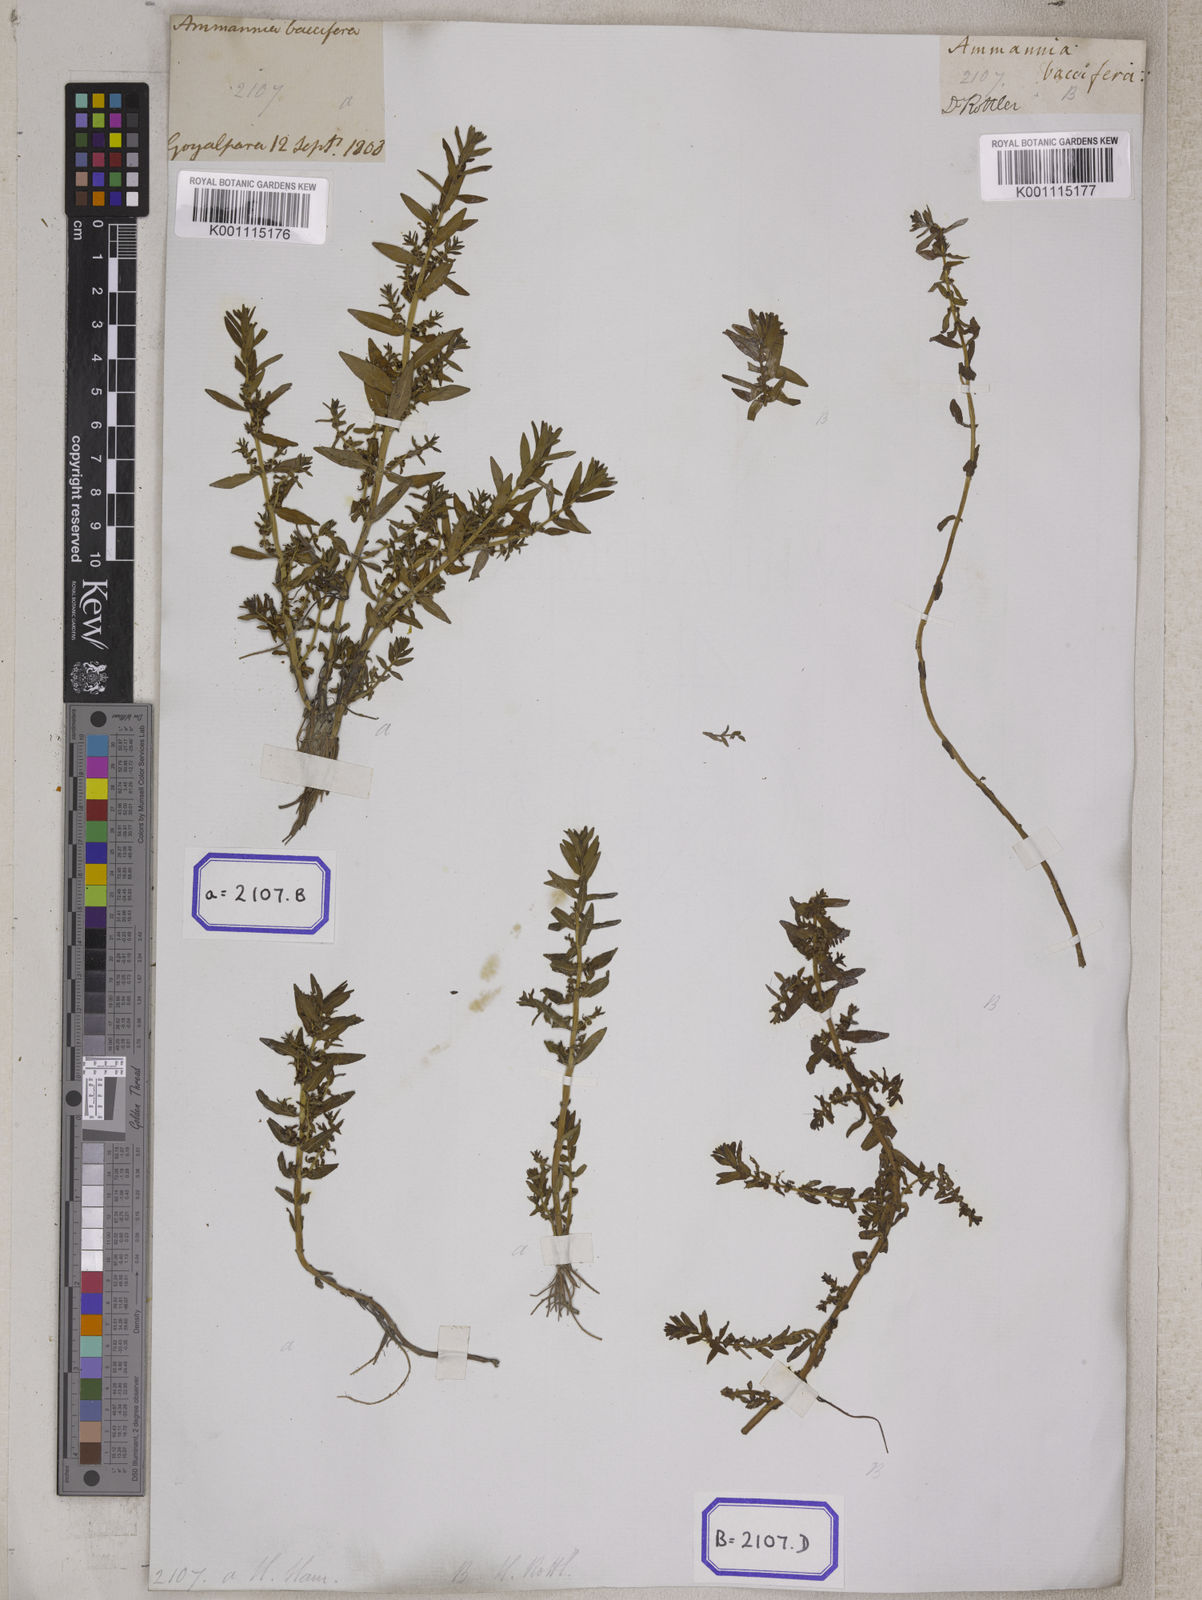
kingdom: Plantae
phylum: Tracheophyta
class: Magnoliopsida
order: Myrtales
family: Lythraceae
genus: Ammannia
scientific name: Ammannia
